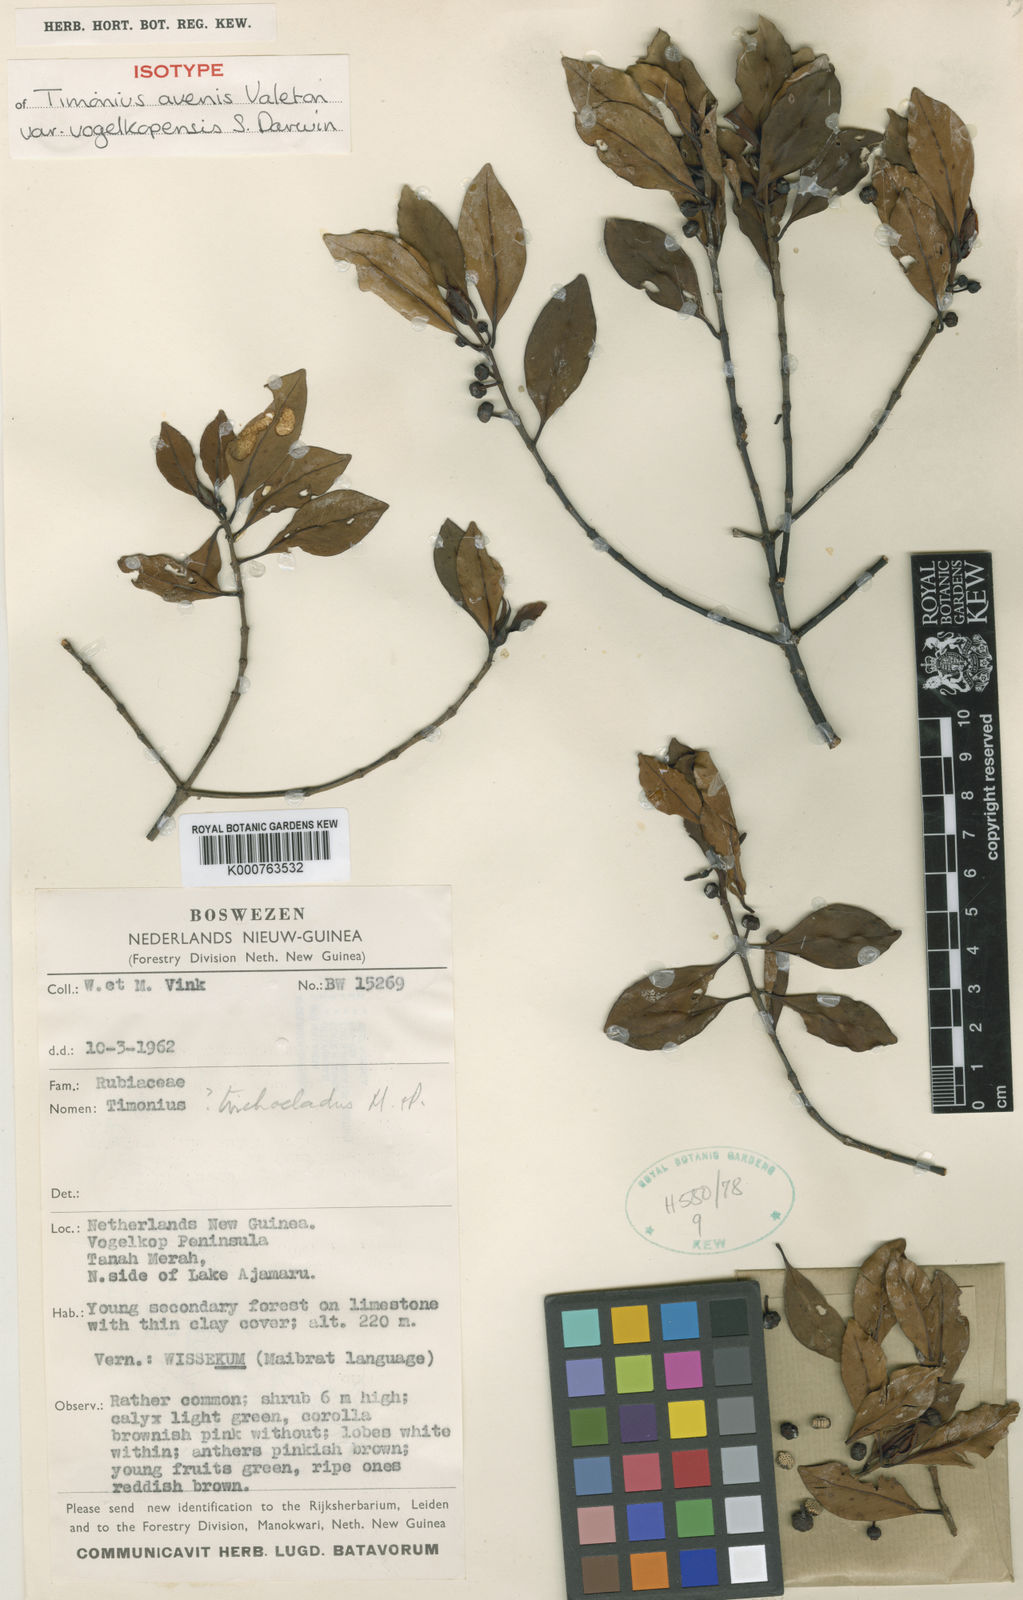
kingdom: Plantae
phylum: Tracheophyta
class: Magnoliopsida
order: Gentianales
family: Rubiaceae
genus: Timonius
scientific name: Timonius avenis
